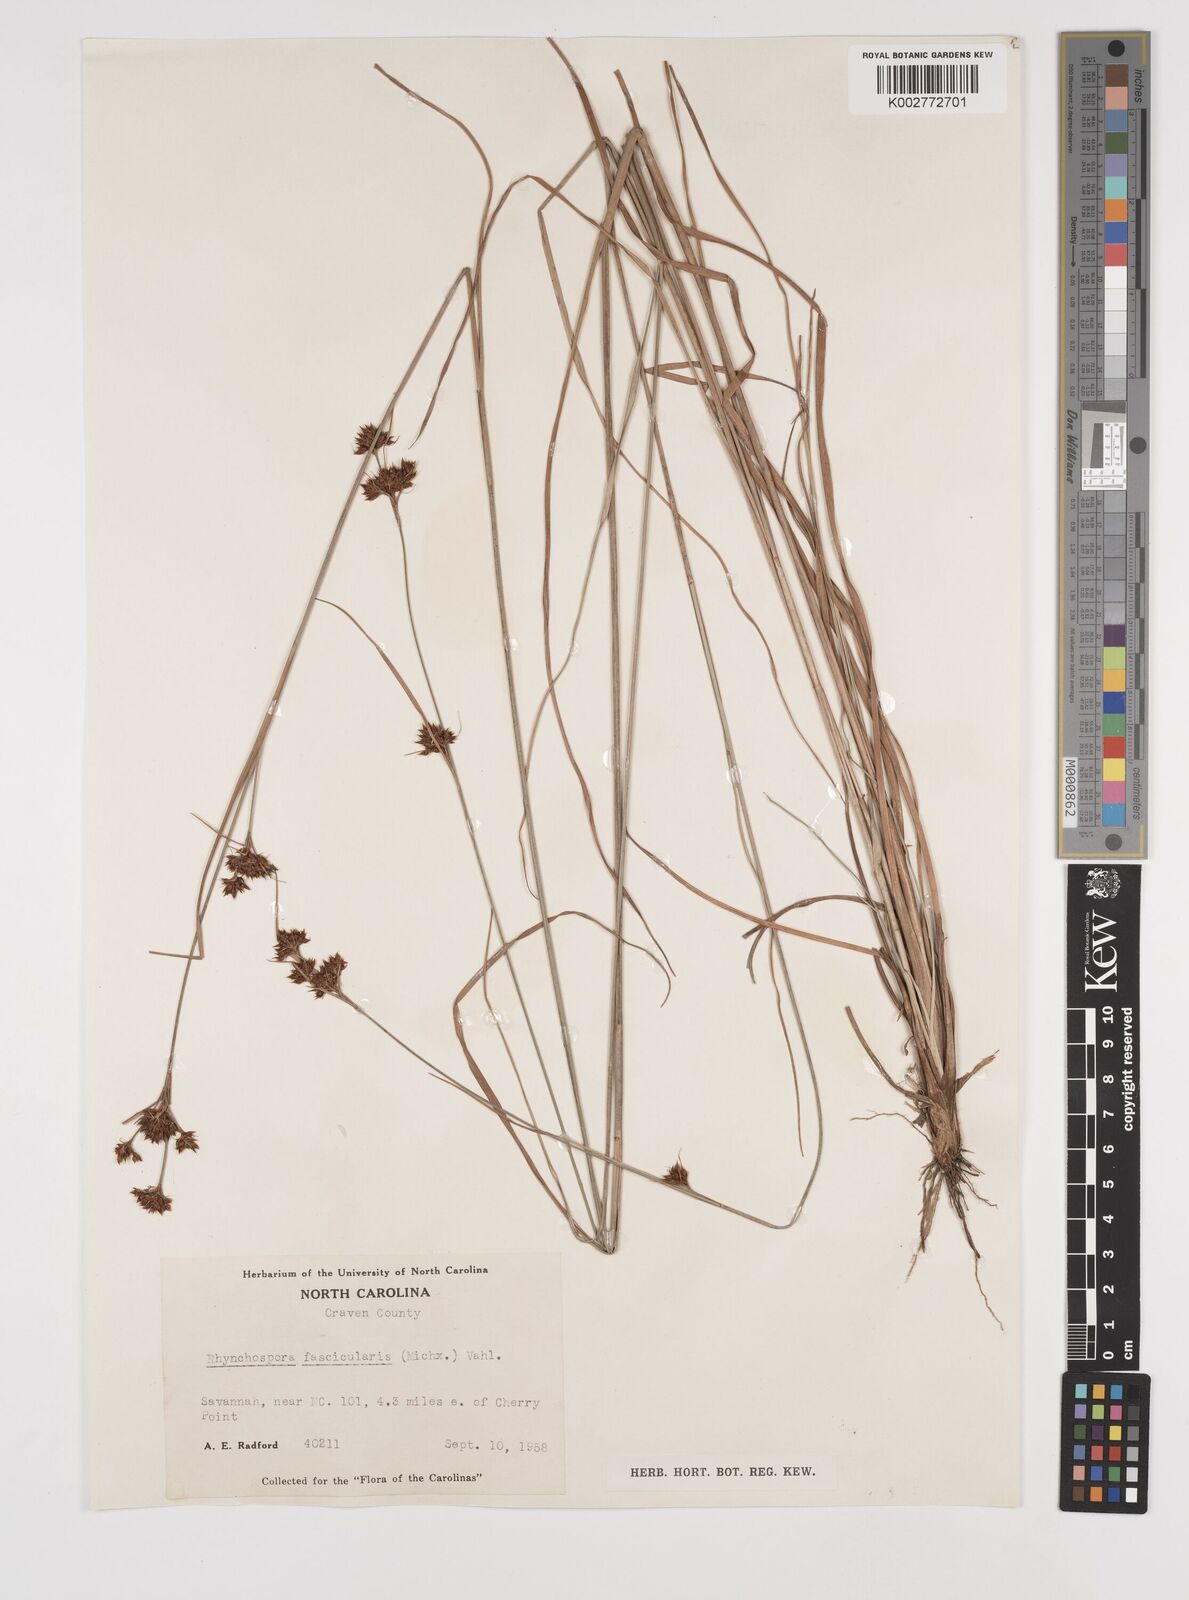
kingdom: Plantae
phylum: Tracheophyta
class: Liliopsida
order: Poales
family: Cyperaceae
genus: Rhynchospora
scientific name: Rhynchospora fascicularis
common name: Fascicled beak sedge
